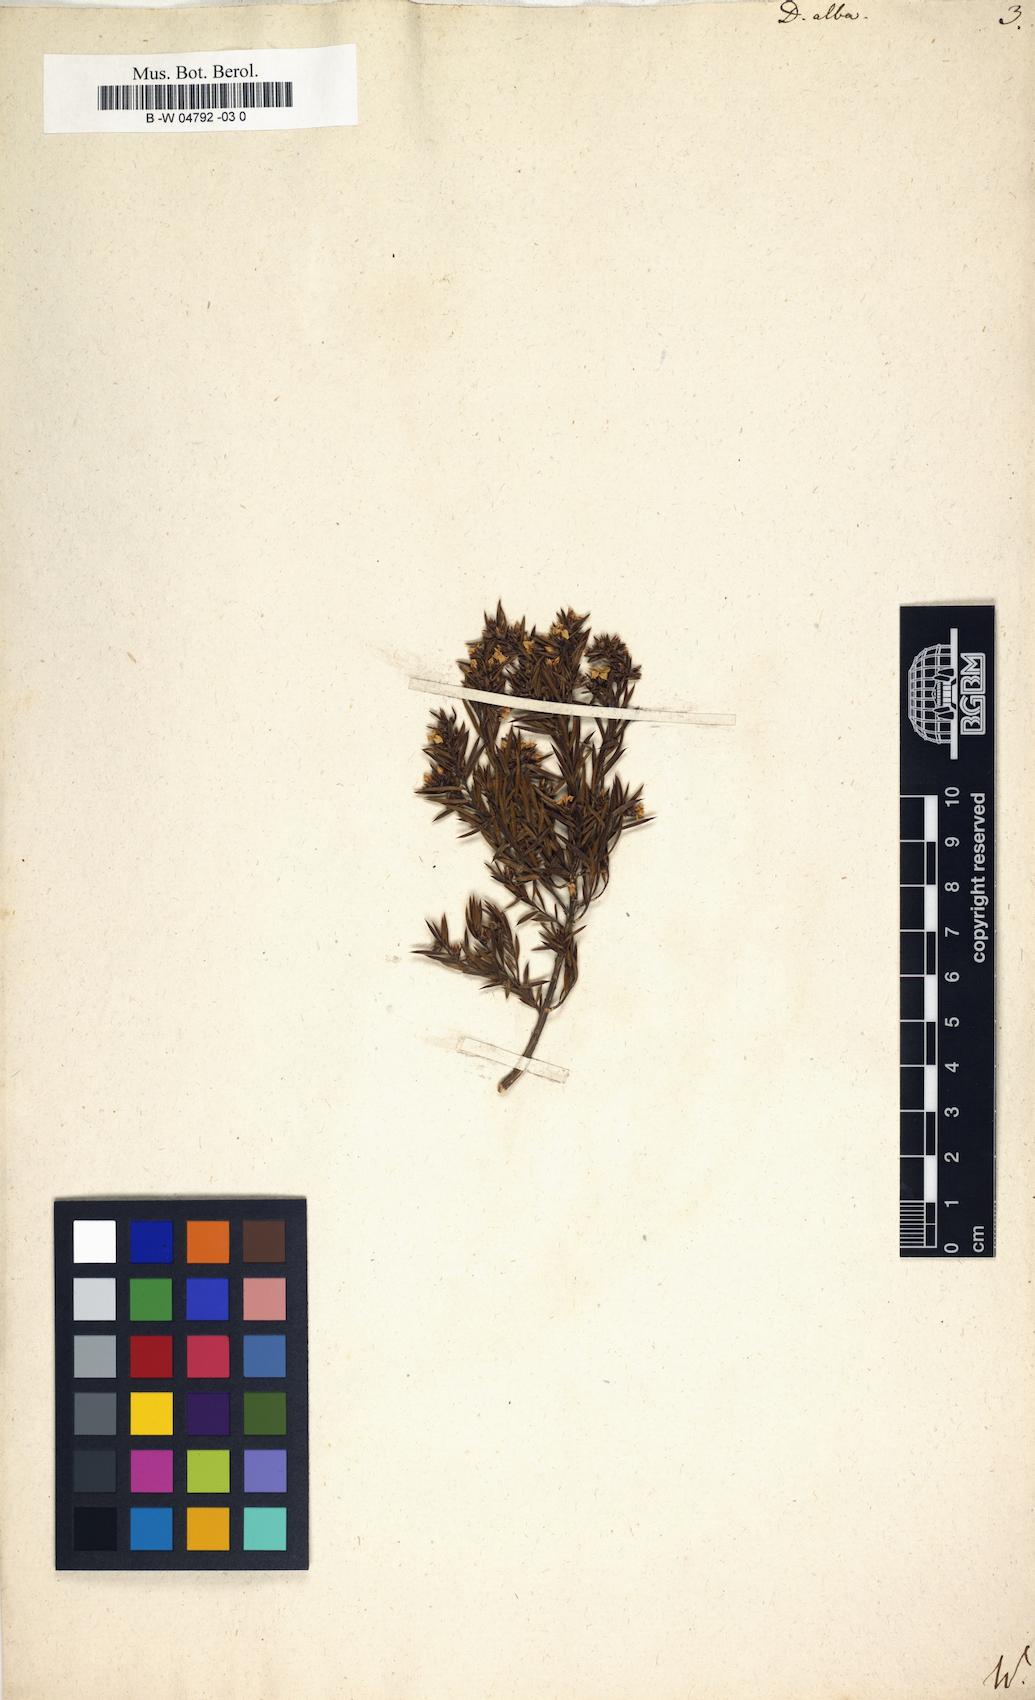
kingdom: Plantae
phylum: Tracheophyta
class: Magnoliopsida
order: Sapindales
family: Rutaceae
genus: Coleonema
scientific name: Coleonema album
